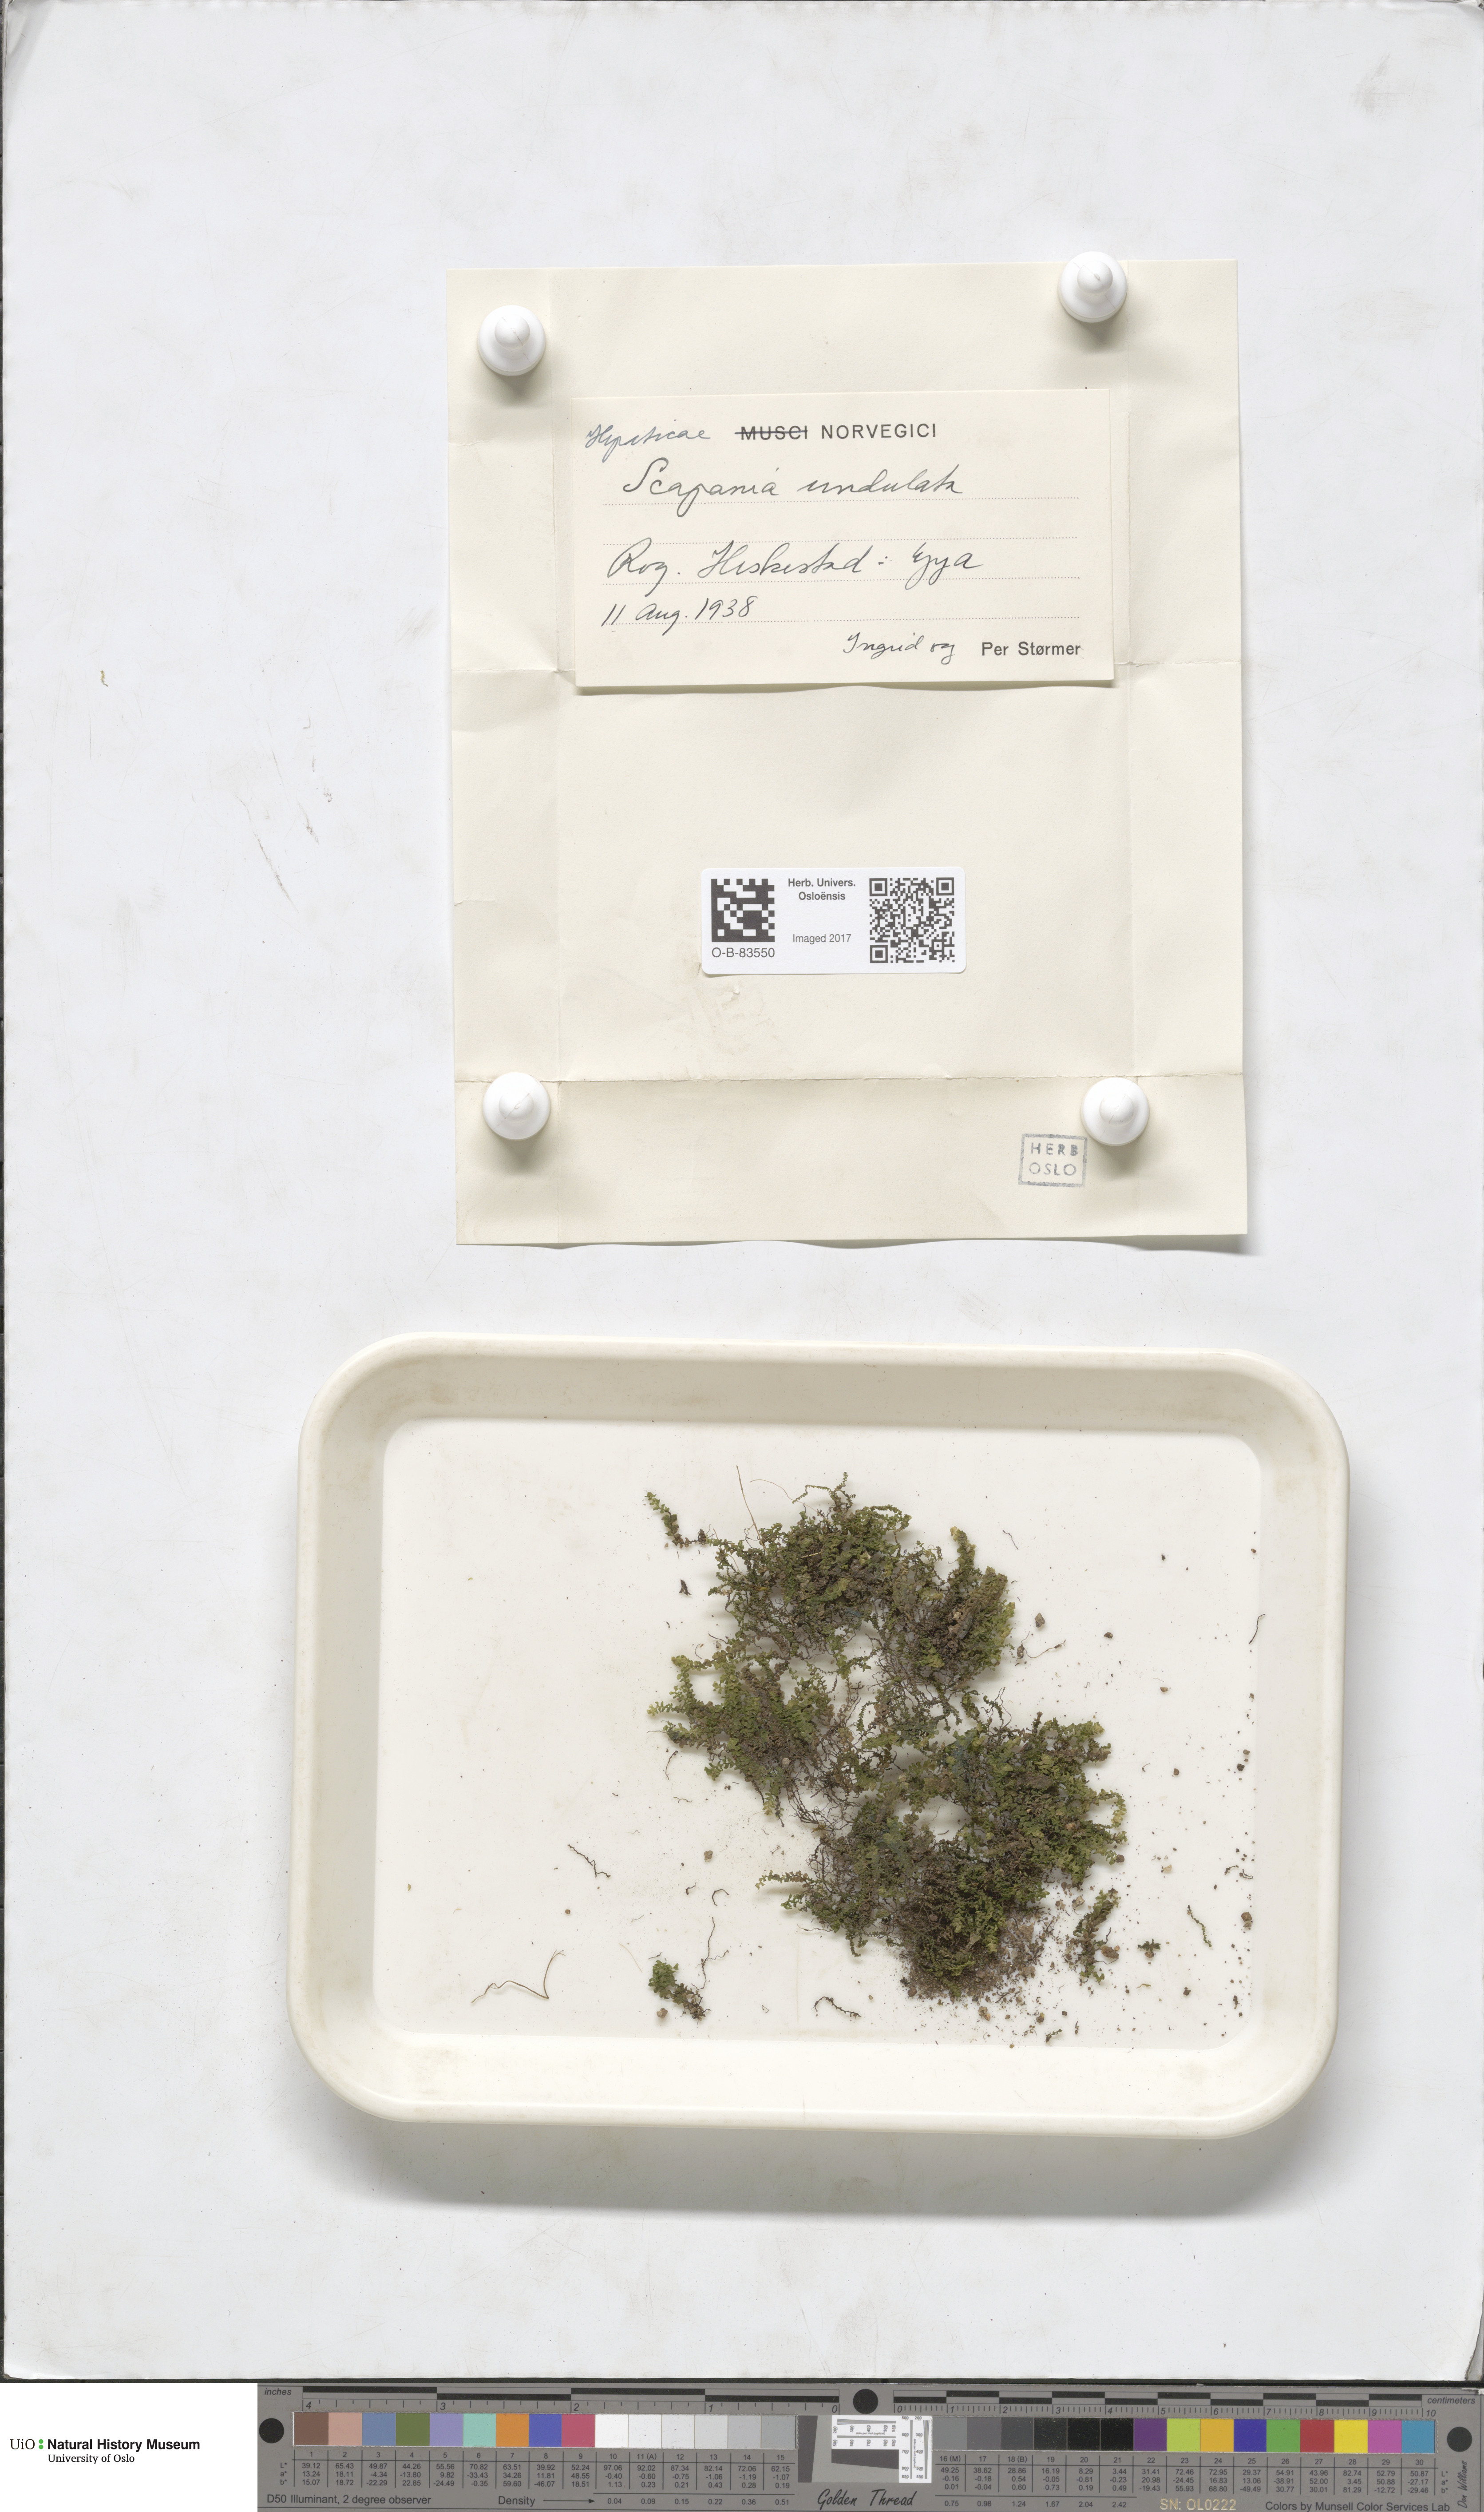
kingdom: Plantae
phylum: Marchantiophyta
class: Jungermanniopsida
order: Jungermanniales
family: Scapaniaceae
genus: Scapania
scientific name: Scapania undulata
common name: Water earwort
